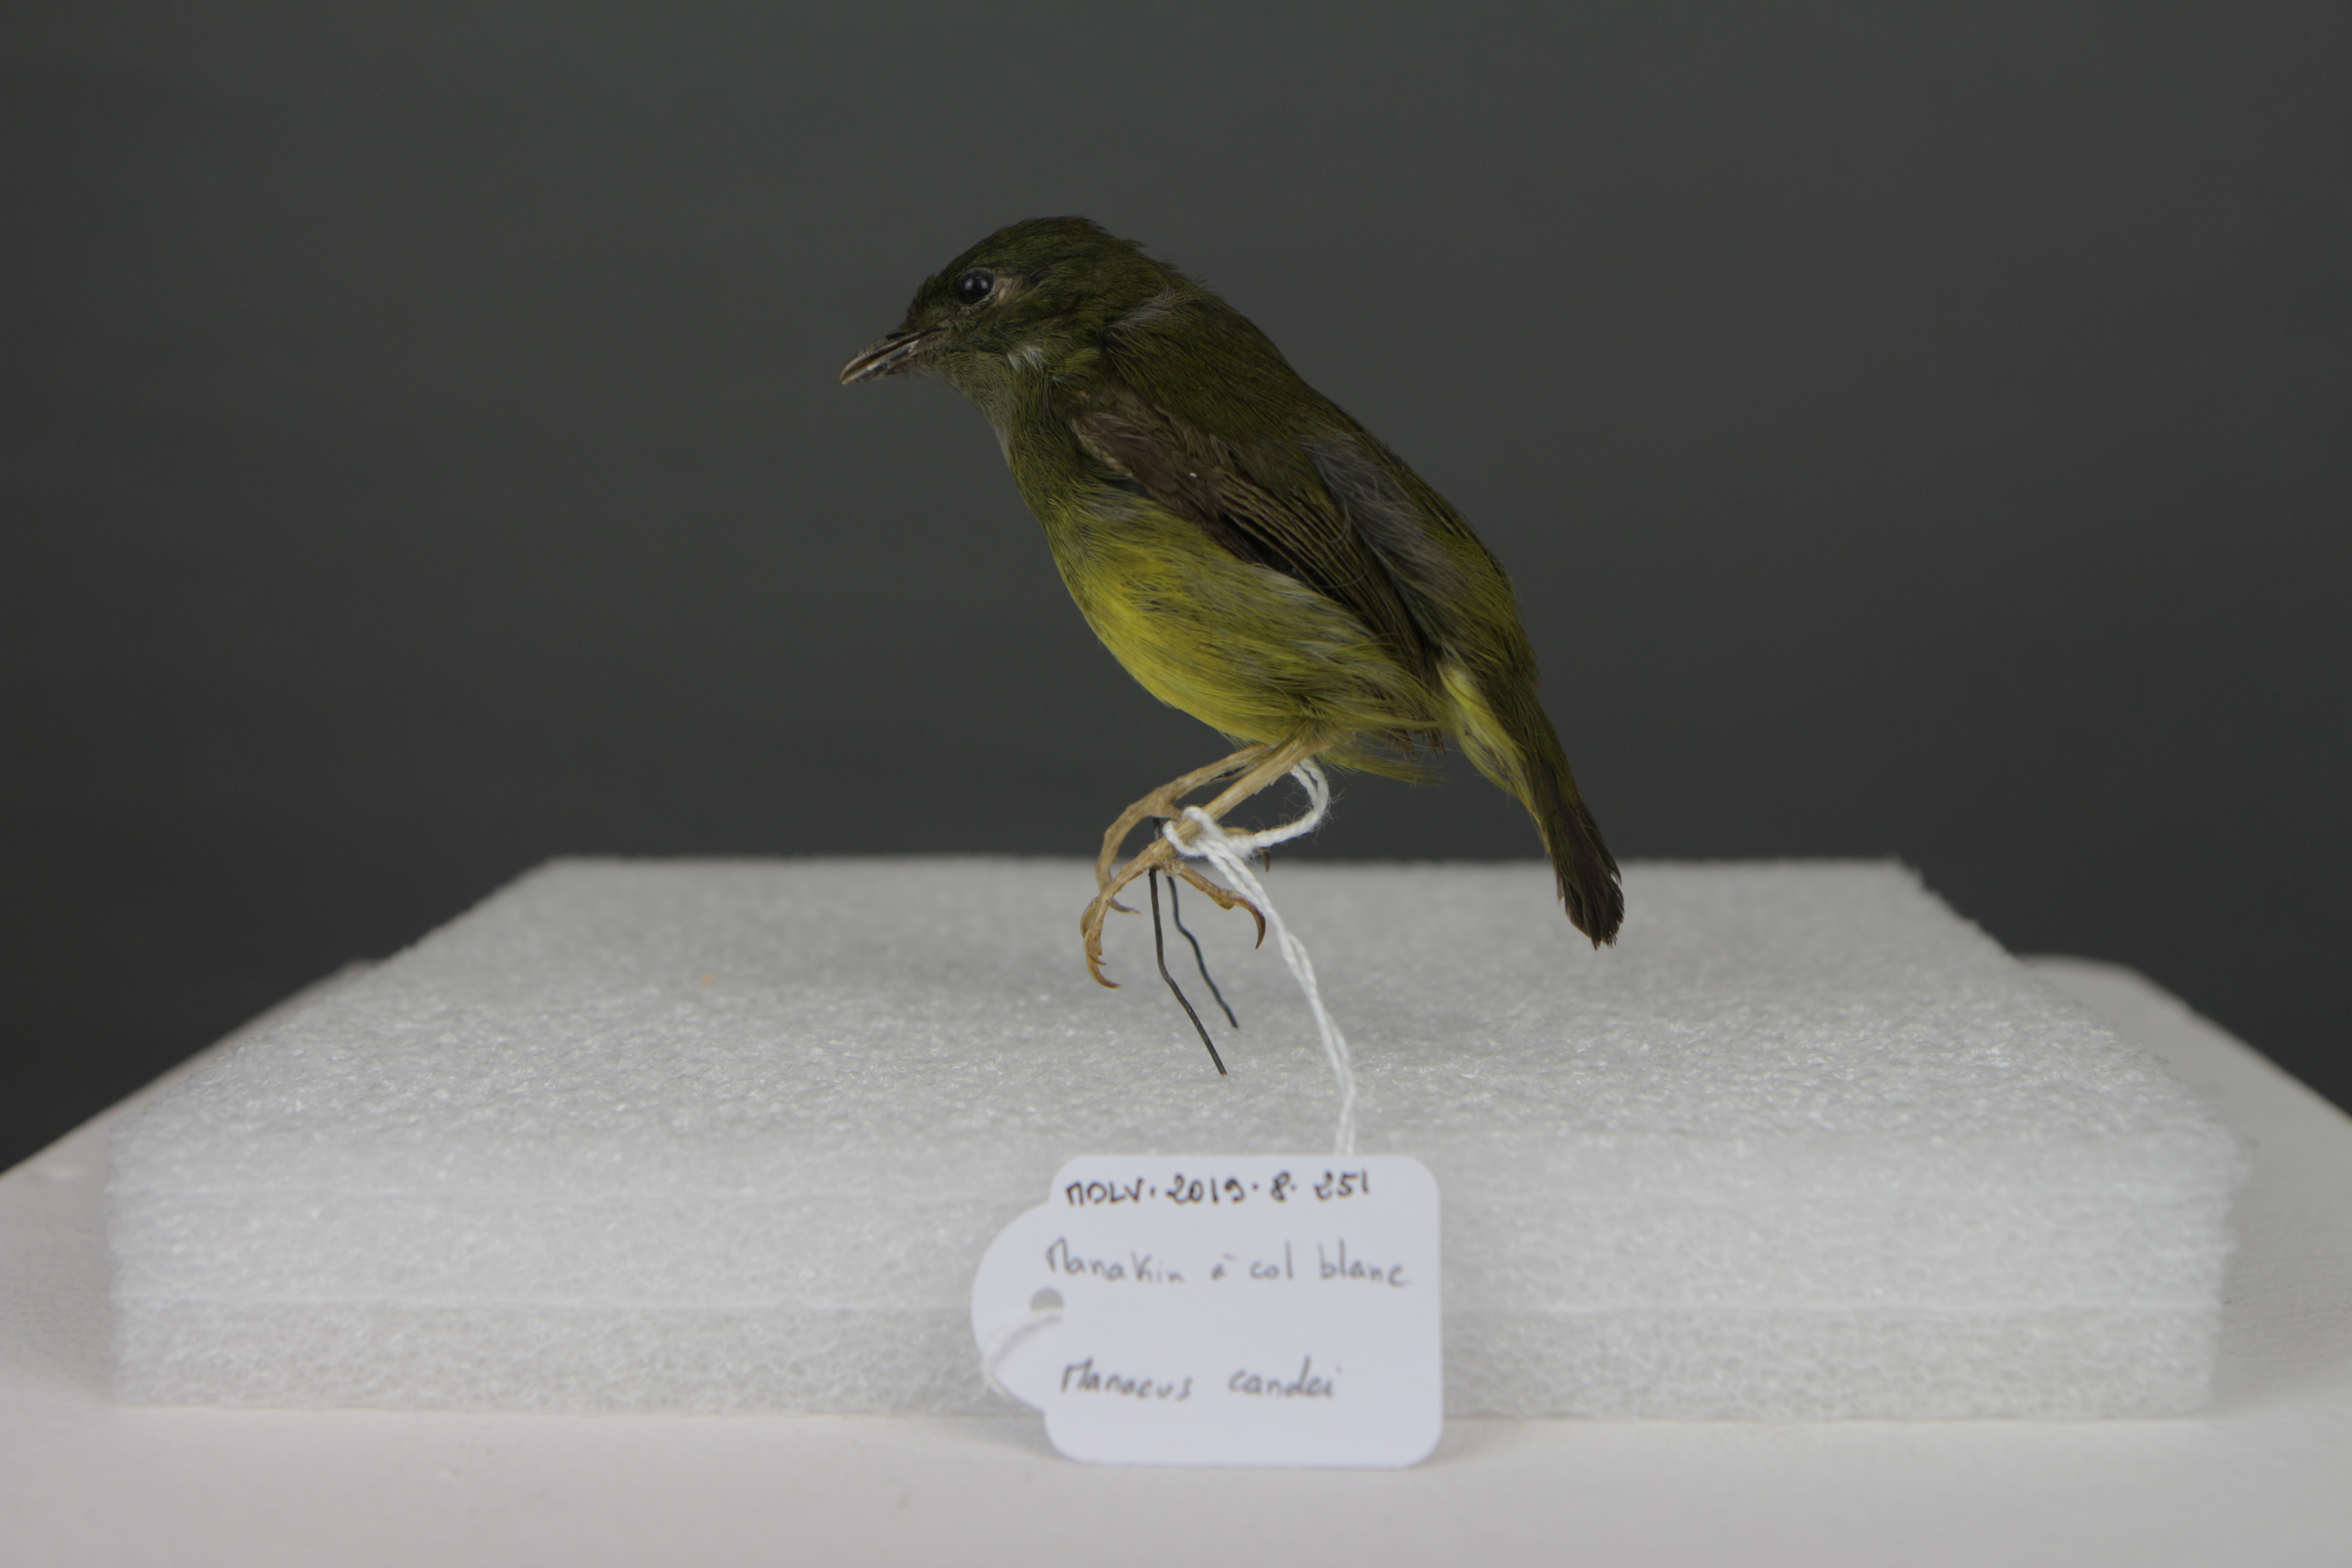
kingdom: Animalia
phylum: Chordata
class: Aves
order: Passeriformes
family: Pipridae
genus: Manacus
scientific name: Manacus candei
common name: White-collared manakin
